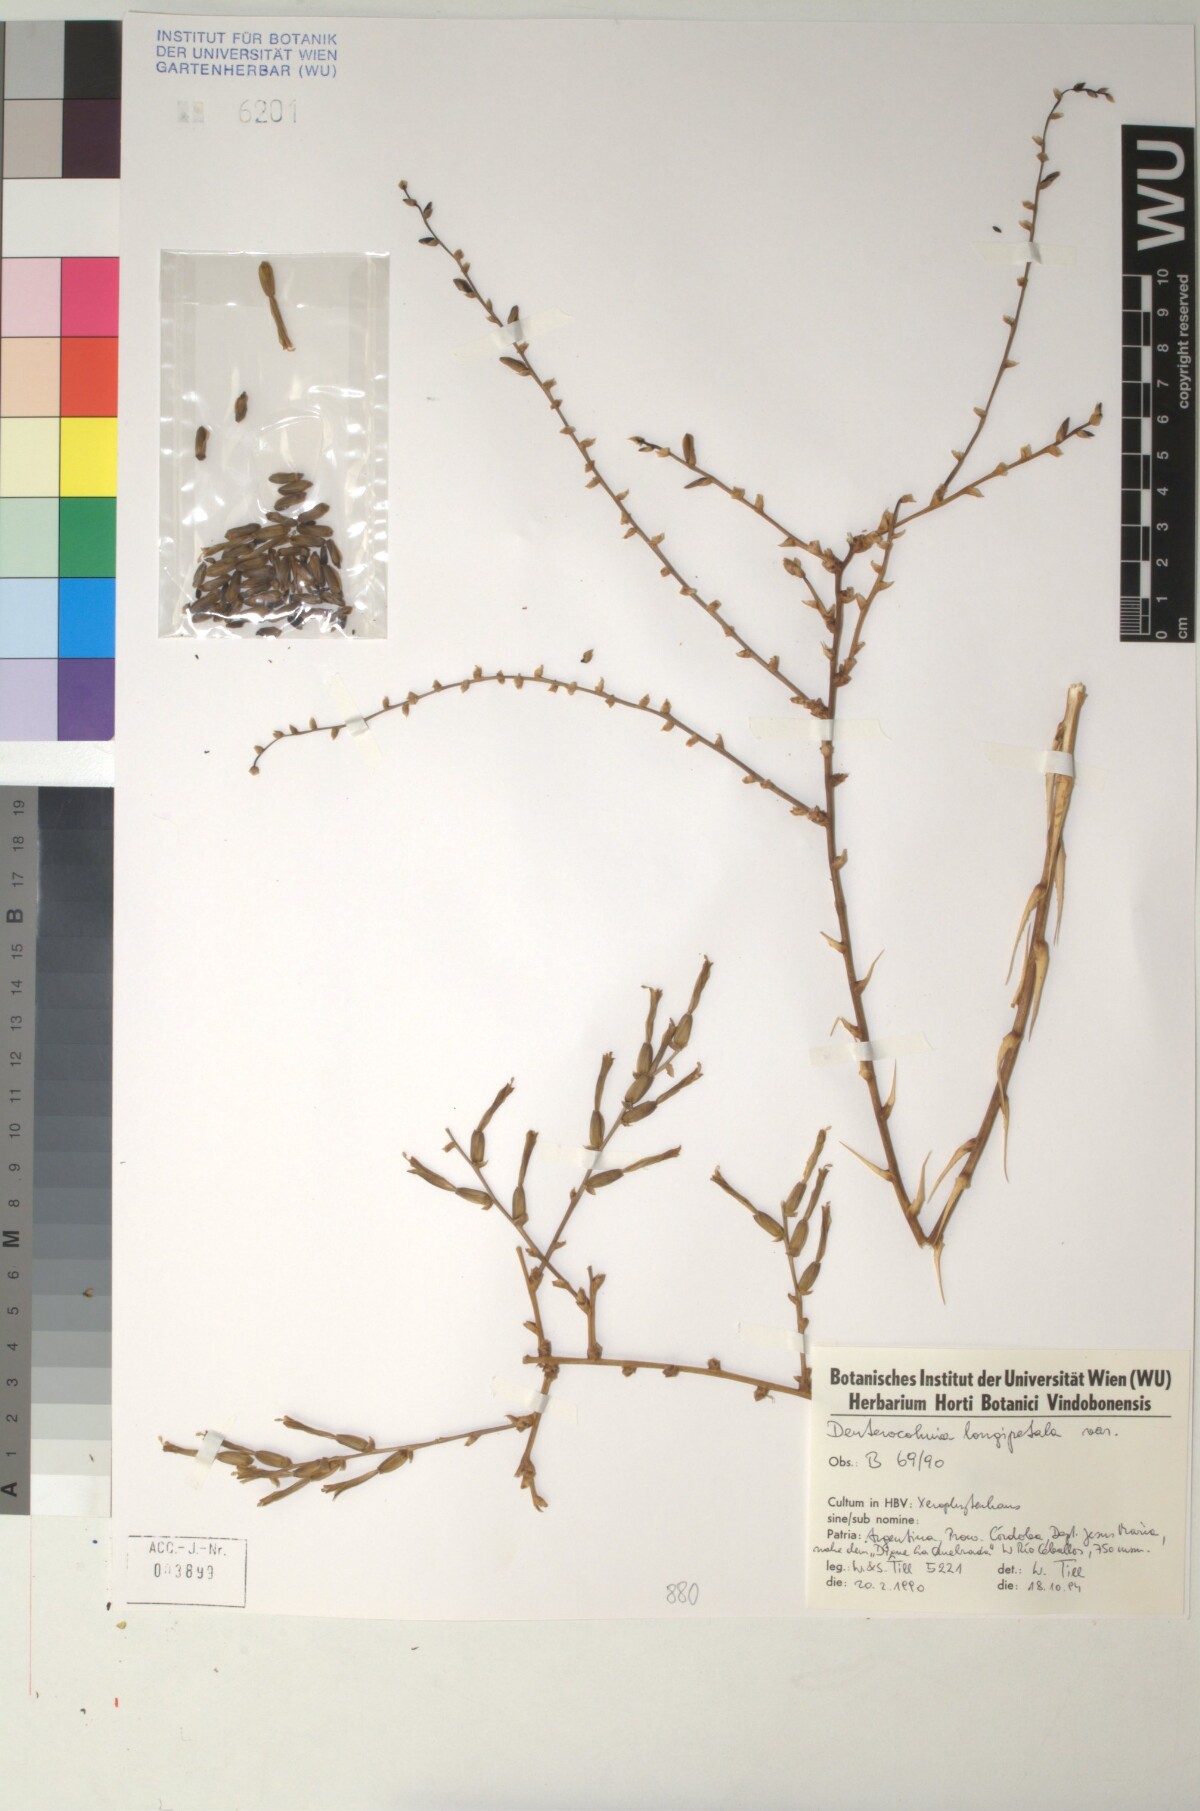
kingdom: Plantae
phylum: Tracheophyta
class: Liliopsida
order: Poales
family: Bromeliaceae
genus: Deuterocohnia
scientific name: Deuterocohnia longipetala
